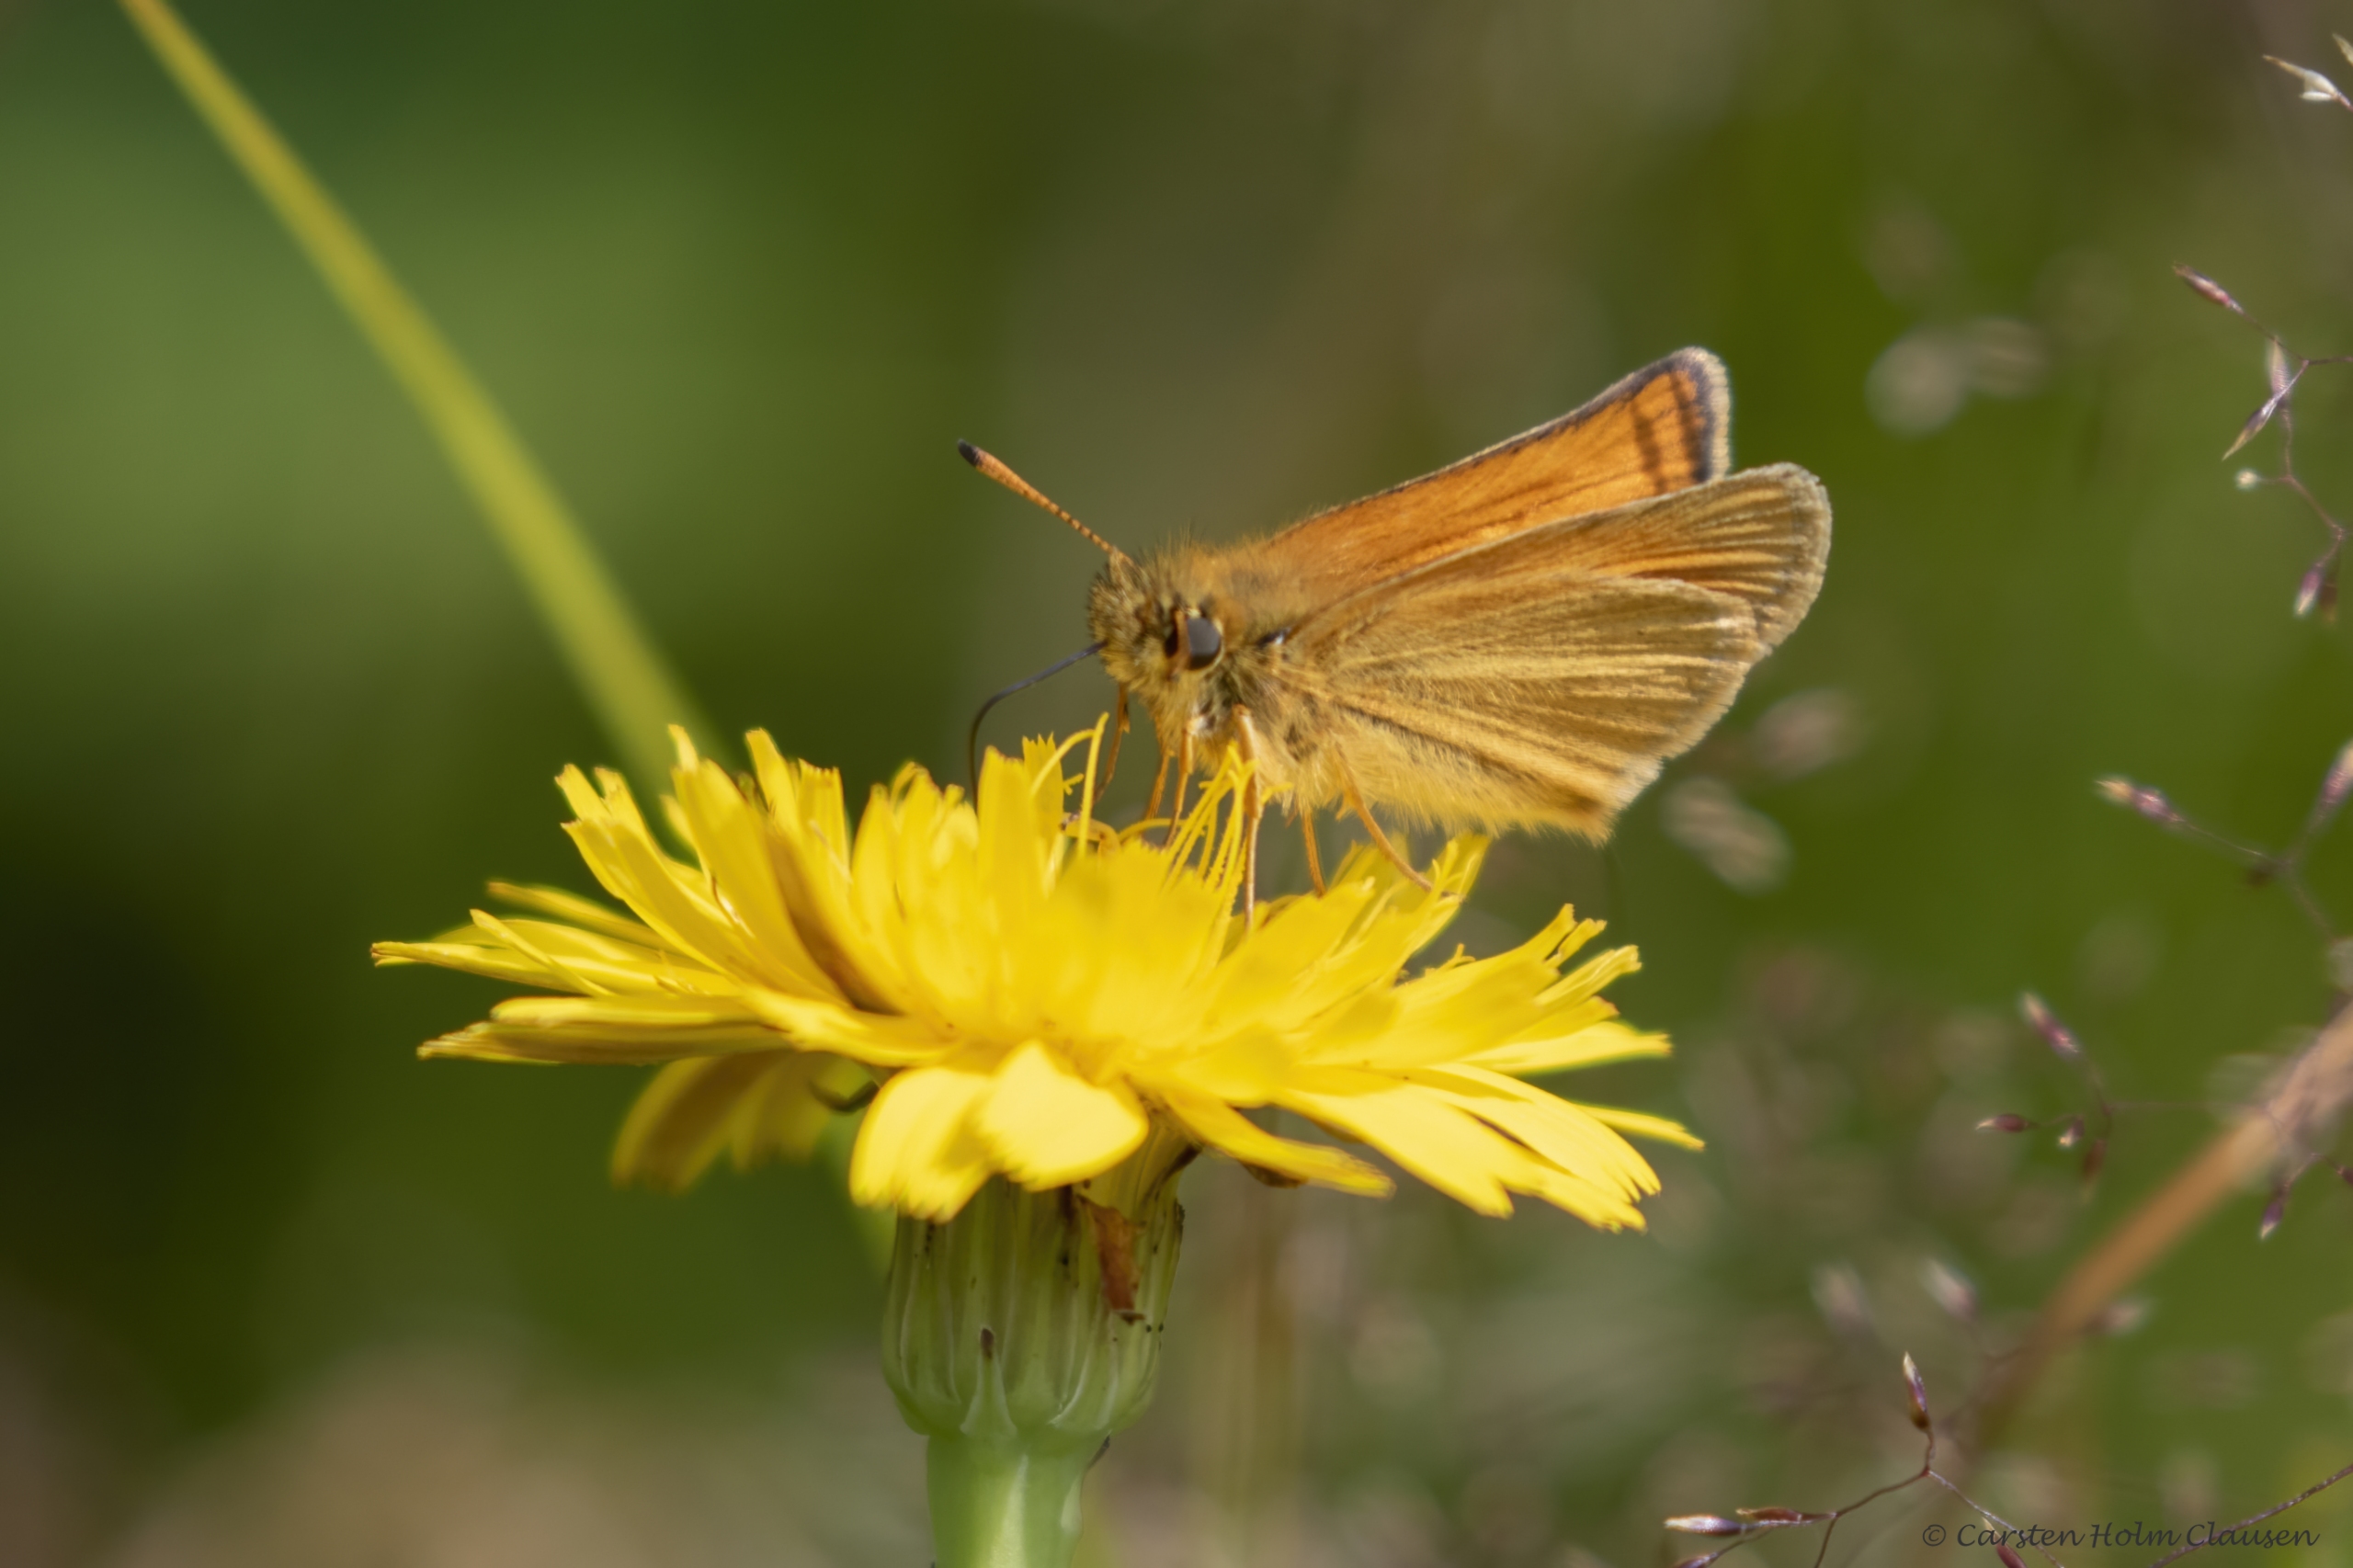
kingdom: Animalia
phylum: Arthropoda
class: Insecta
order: Lepidoptera
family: Hesperiidae
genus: Thymelicus
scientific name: Thymelicus lineola
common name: Stregbredpande
